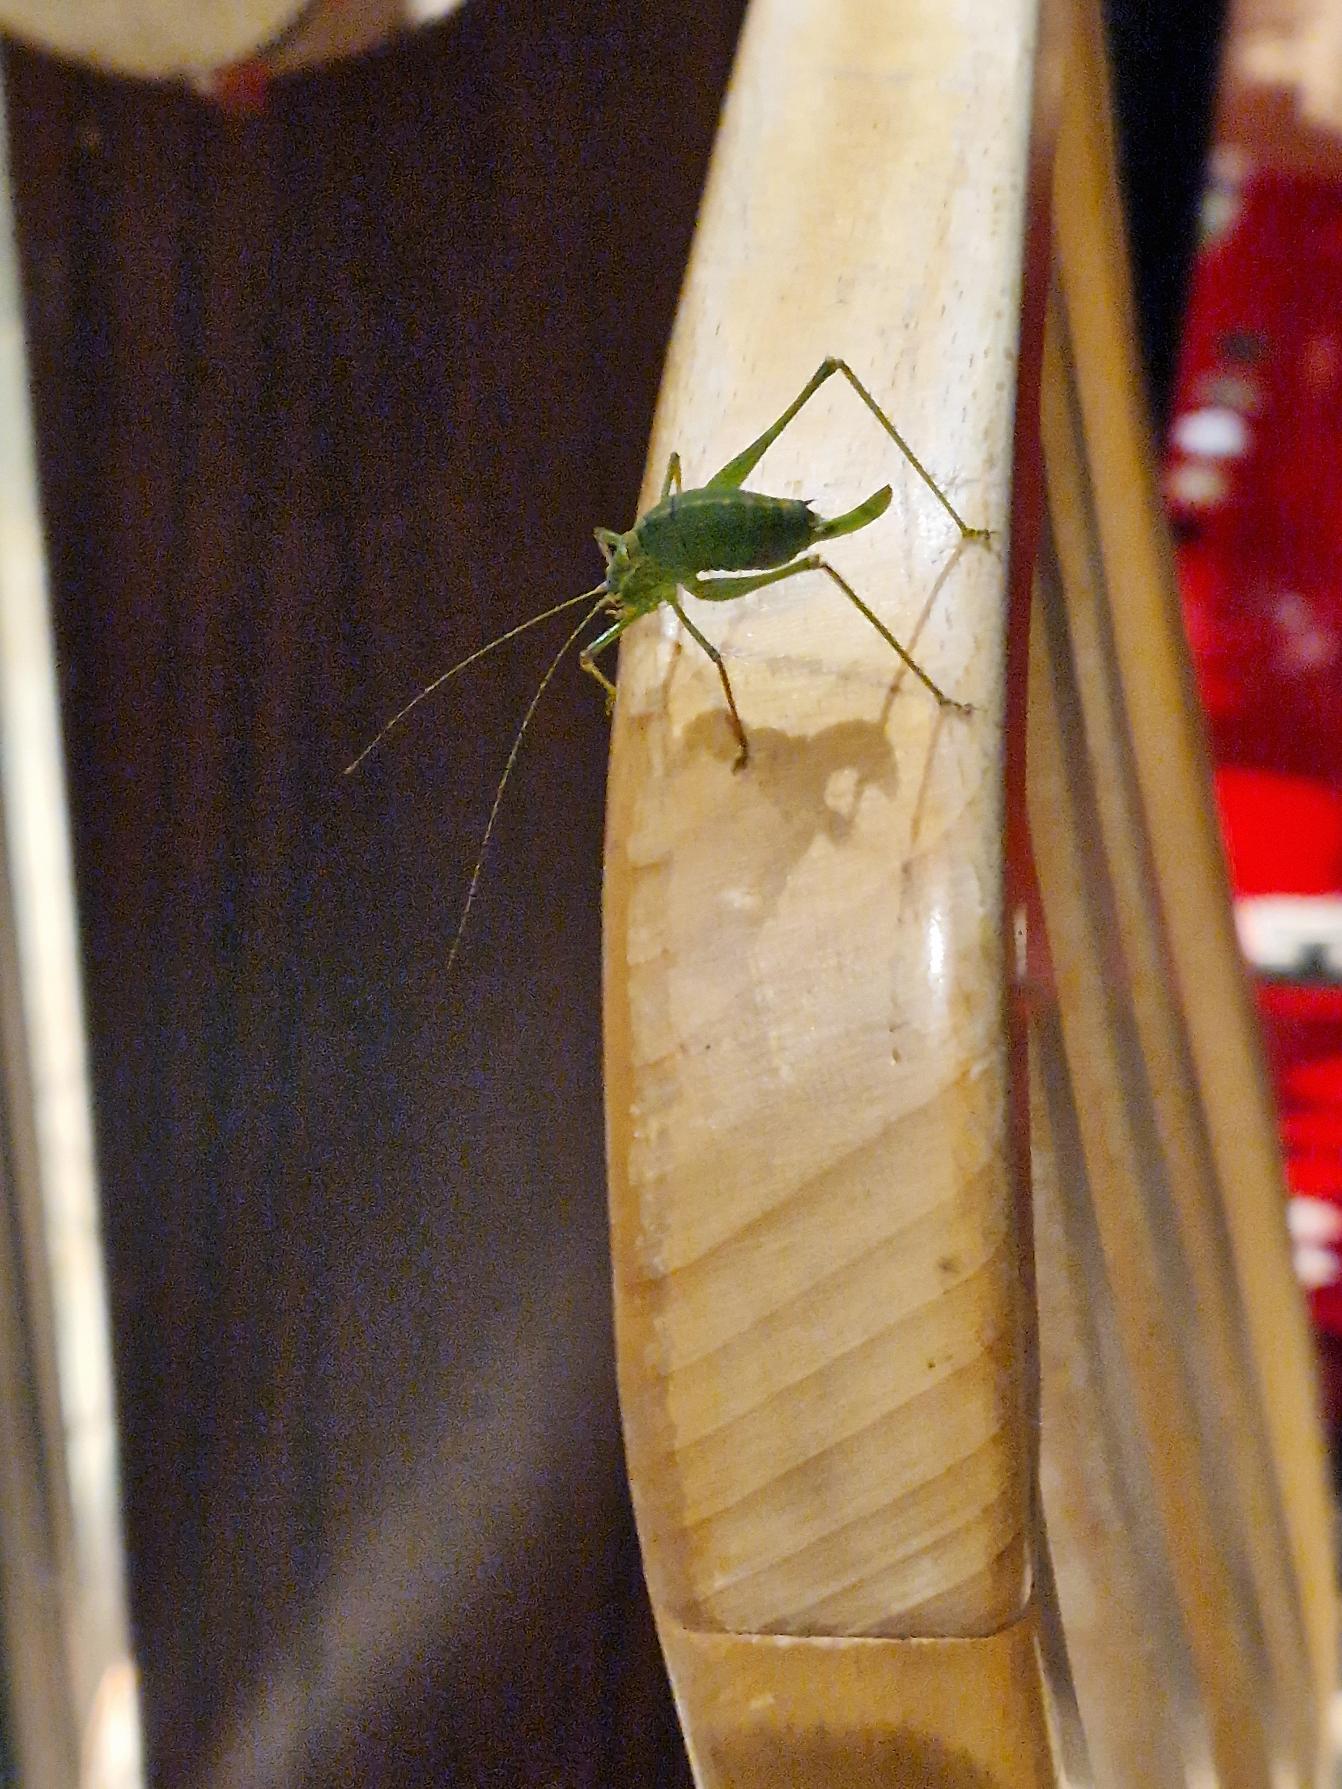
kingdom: Animalia
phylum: Arthropoda
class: Insecta
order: Orthoptera
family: Tettigoniidae
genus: Leptophyes
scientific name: Leptophyes punctatissima
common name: Krumknivgræshoppe
